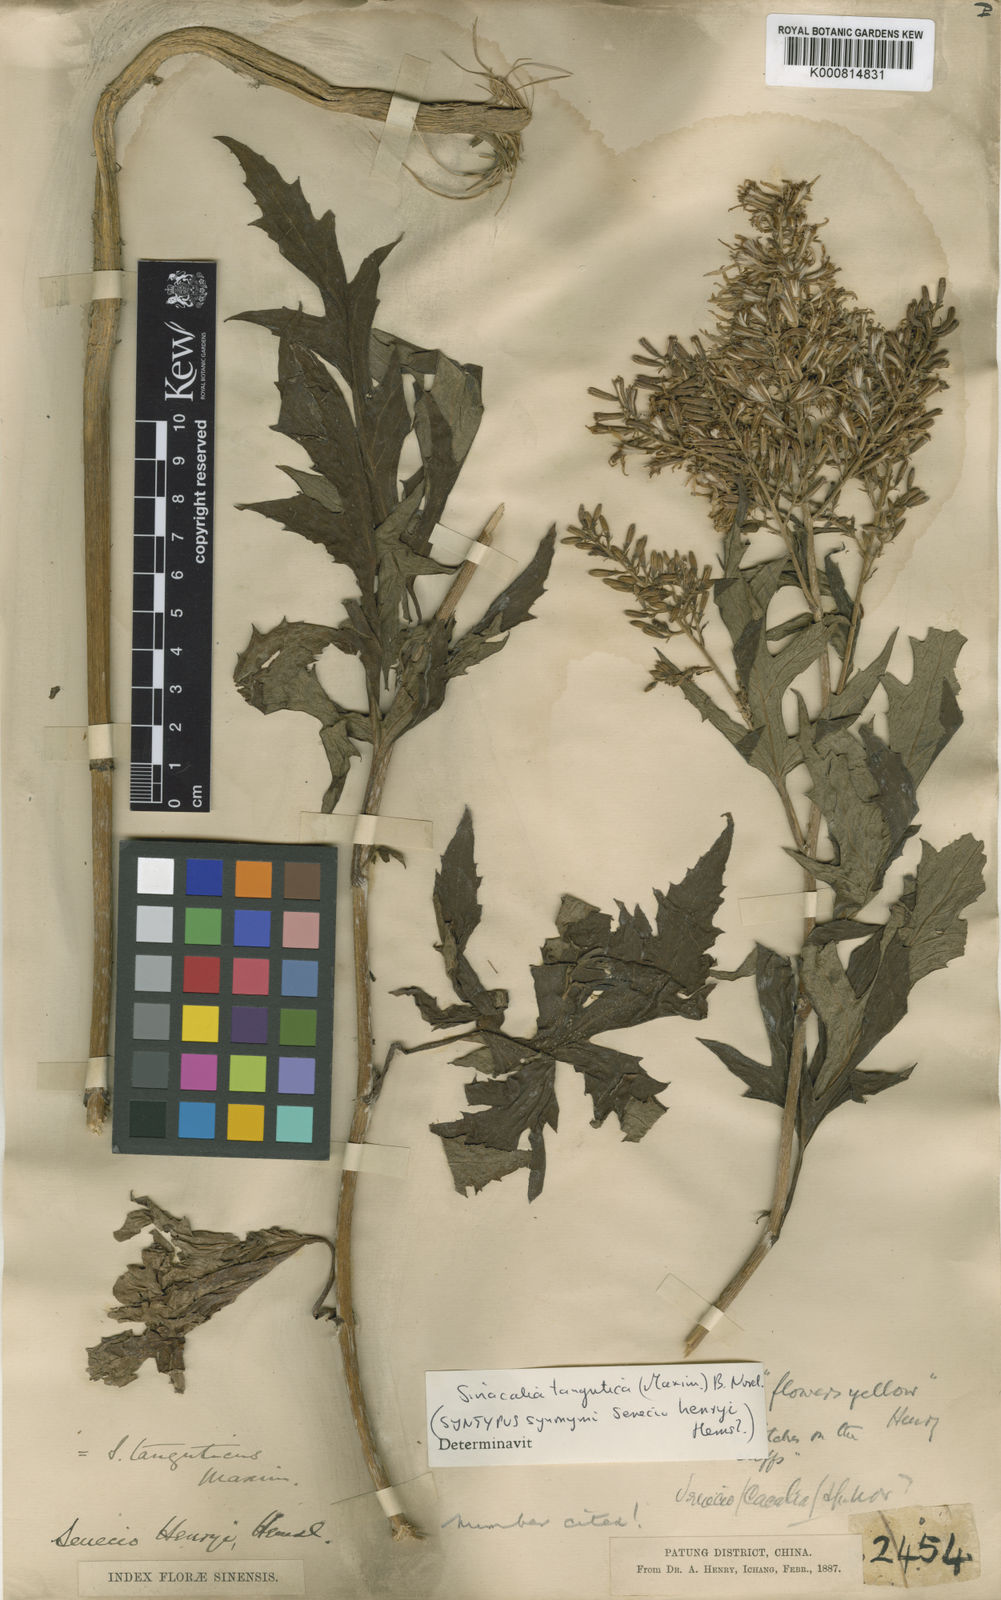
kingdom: Plantae
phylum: Tracheophyta
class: Magnoliopsida
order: Asterales
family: Asteraceae
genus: Sinacalia
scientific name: Sinacalia tangutica
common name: Chinese ragwort
